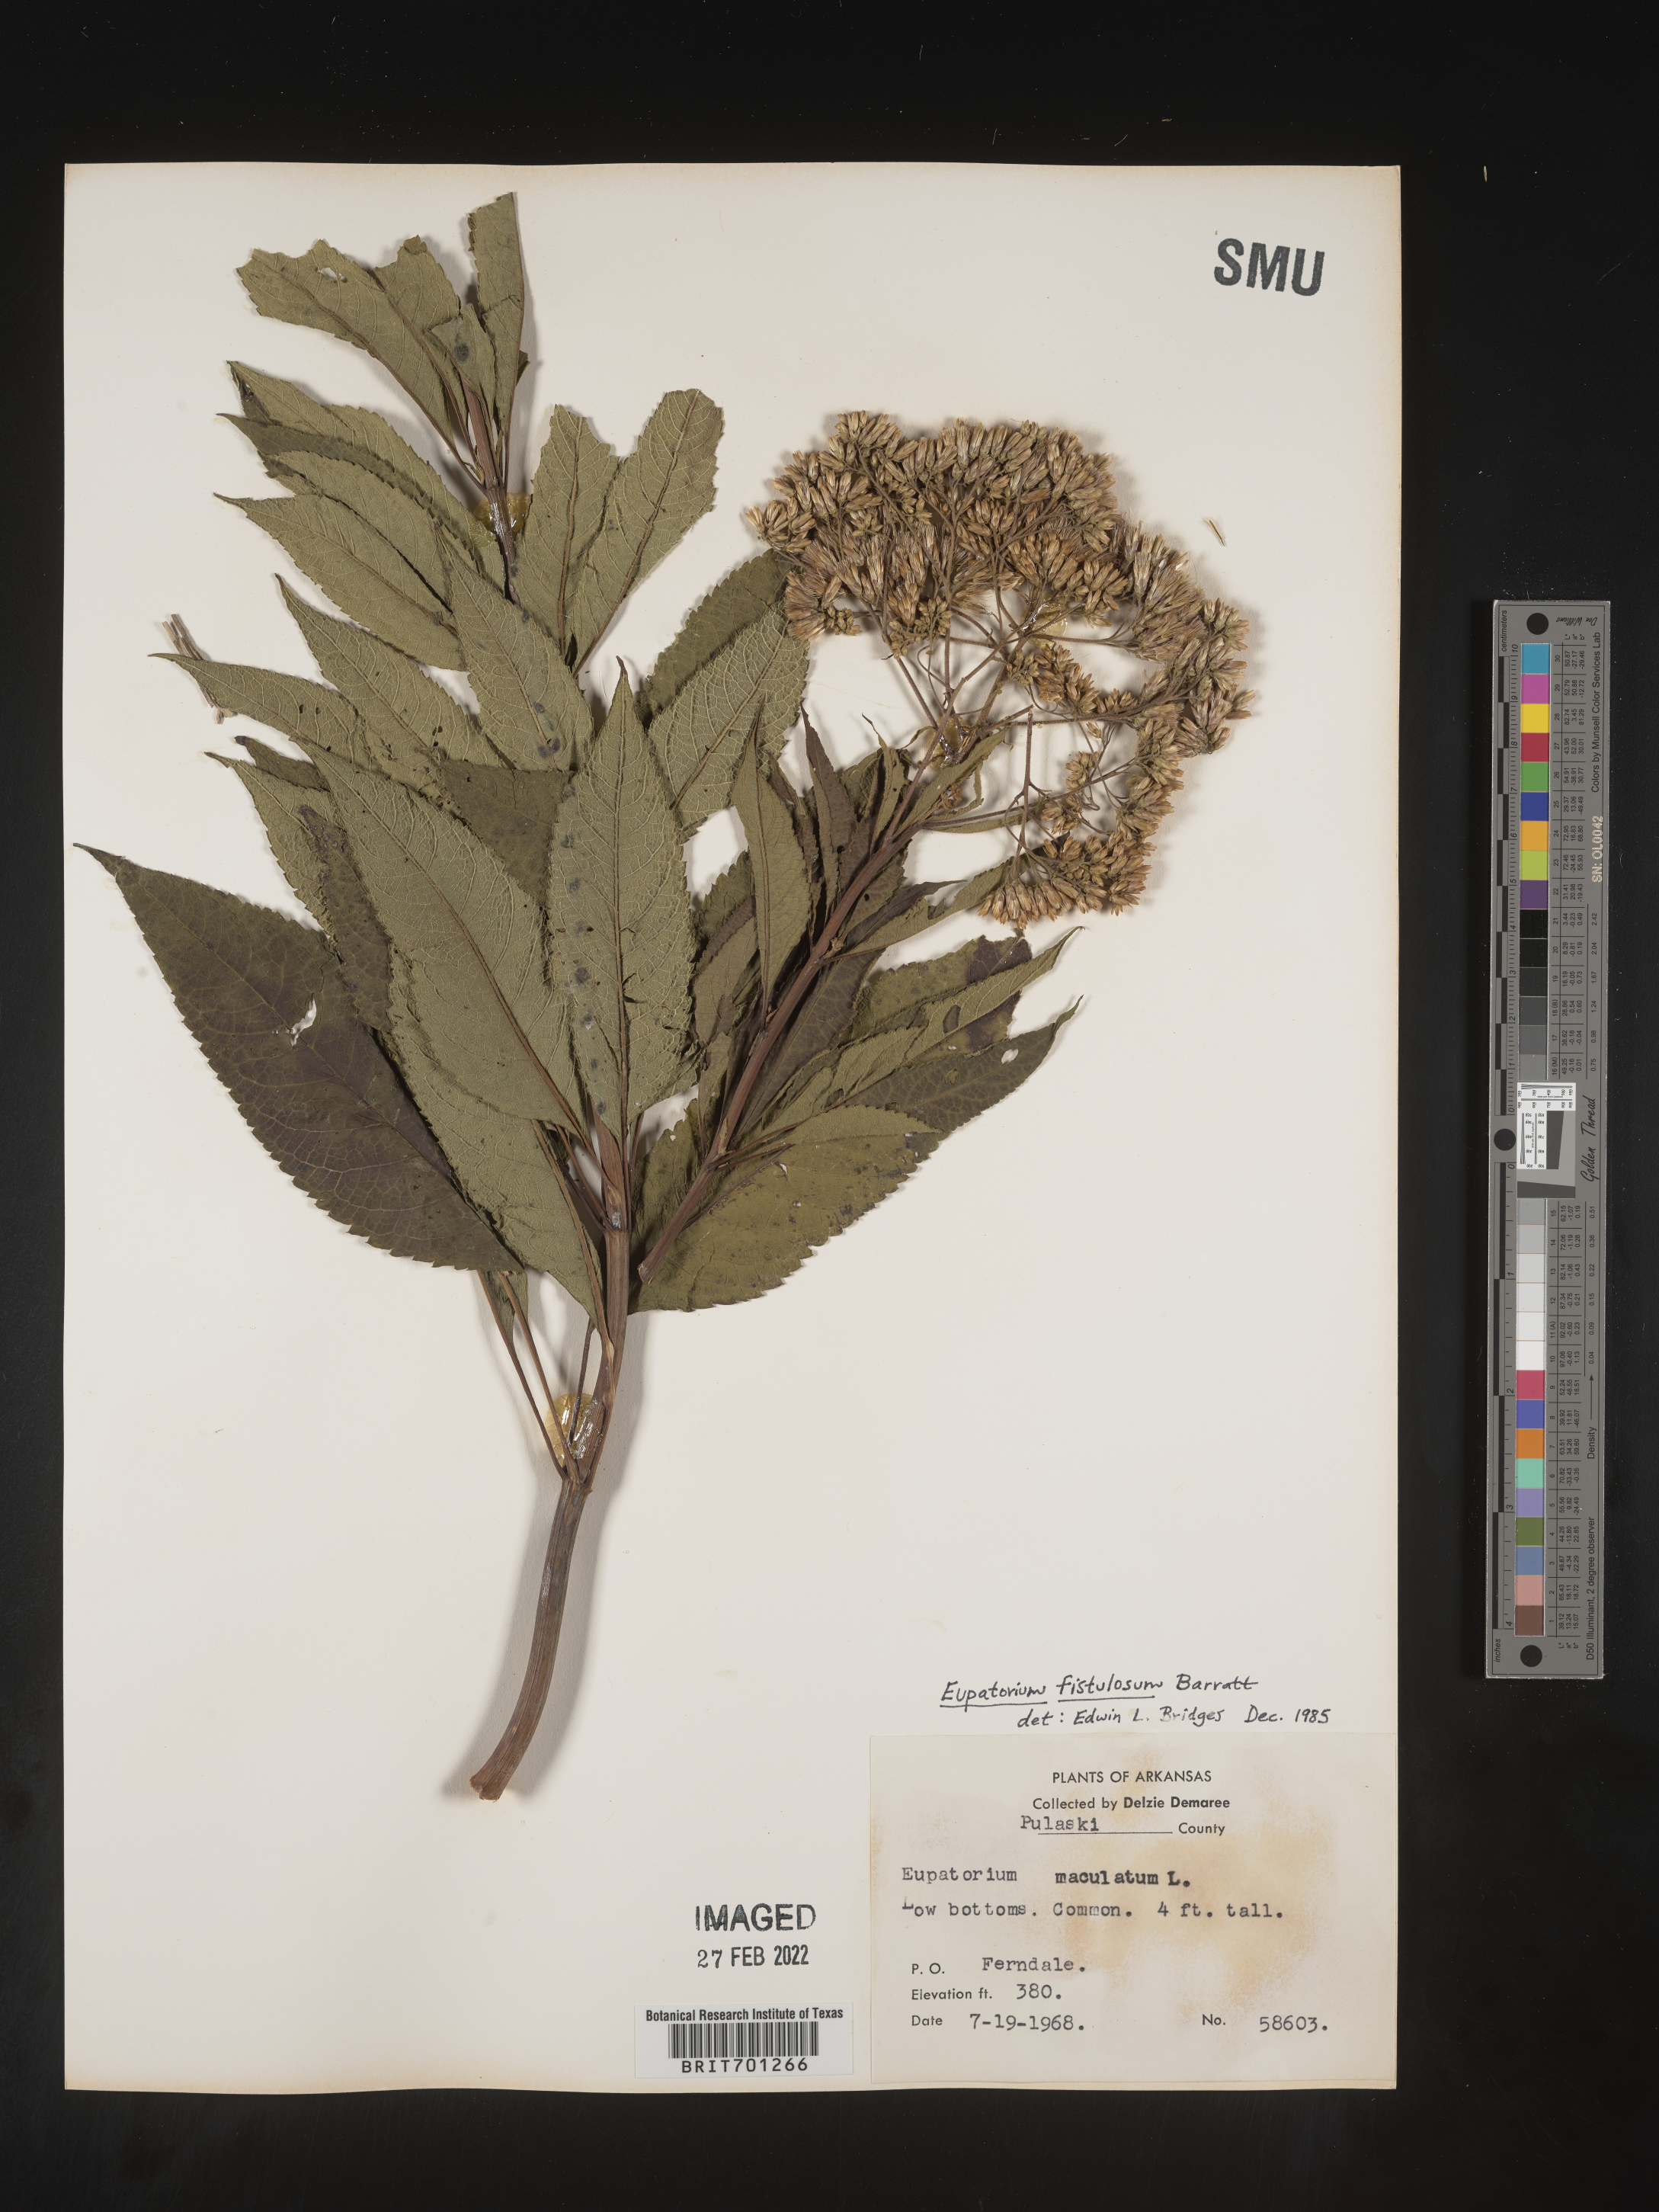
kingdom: Plantae
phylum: Tracheophyta
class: Magnoliopsida
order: Asterales
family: Asteraceae
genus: Eutrochium
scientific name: Eutrochium fistulosum
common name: Trumpetweed
